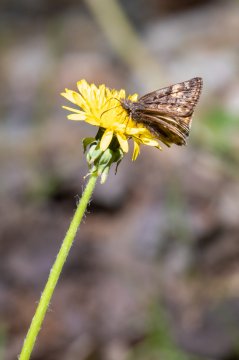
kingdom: Animalia
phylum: Arthropoda
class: Insecta
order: Lepidoptera
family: Hesperiidae
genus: Gesta
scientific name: Gesta
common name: Juvenal's Duskywing
